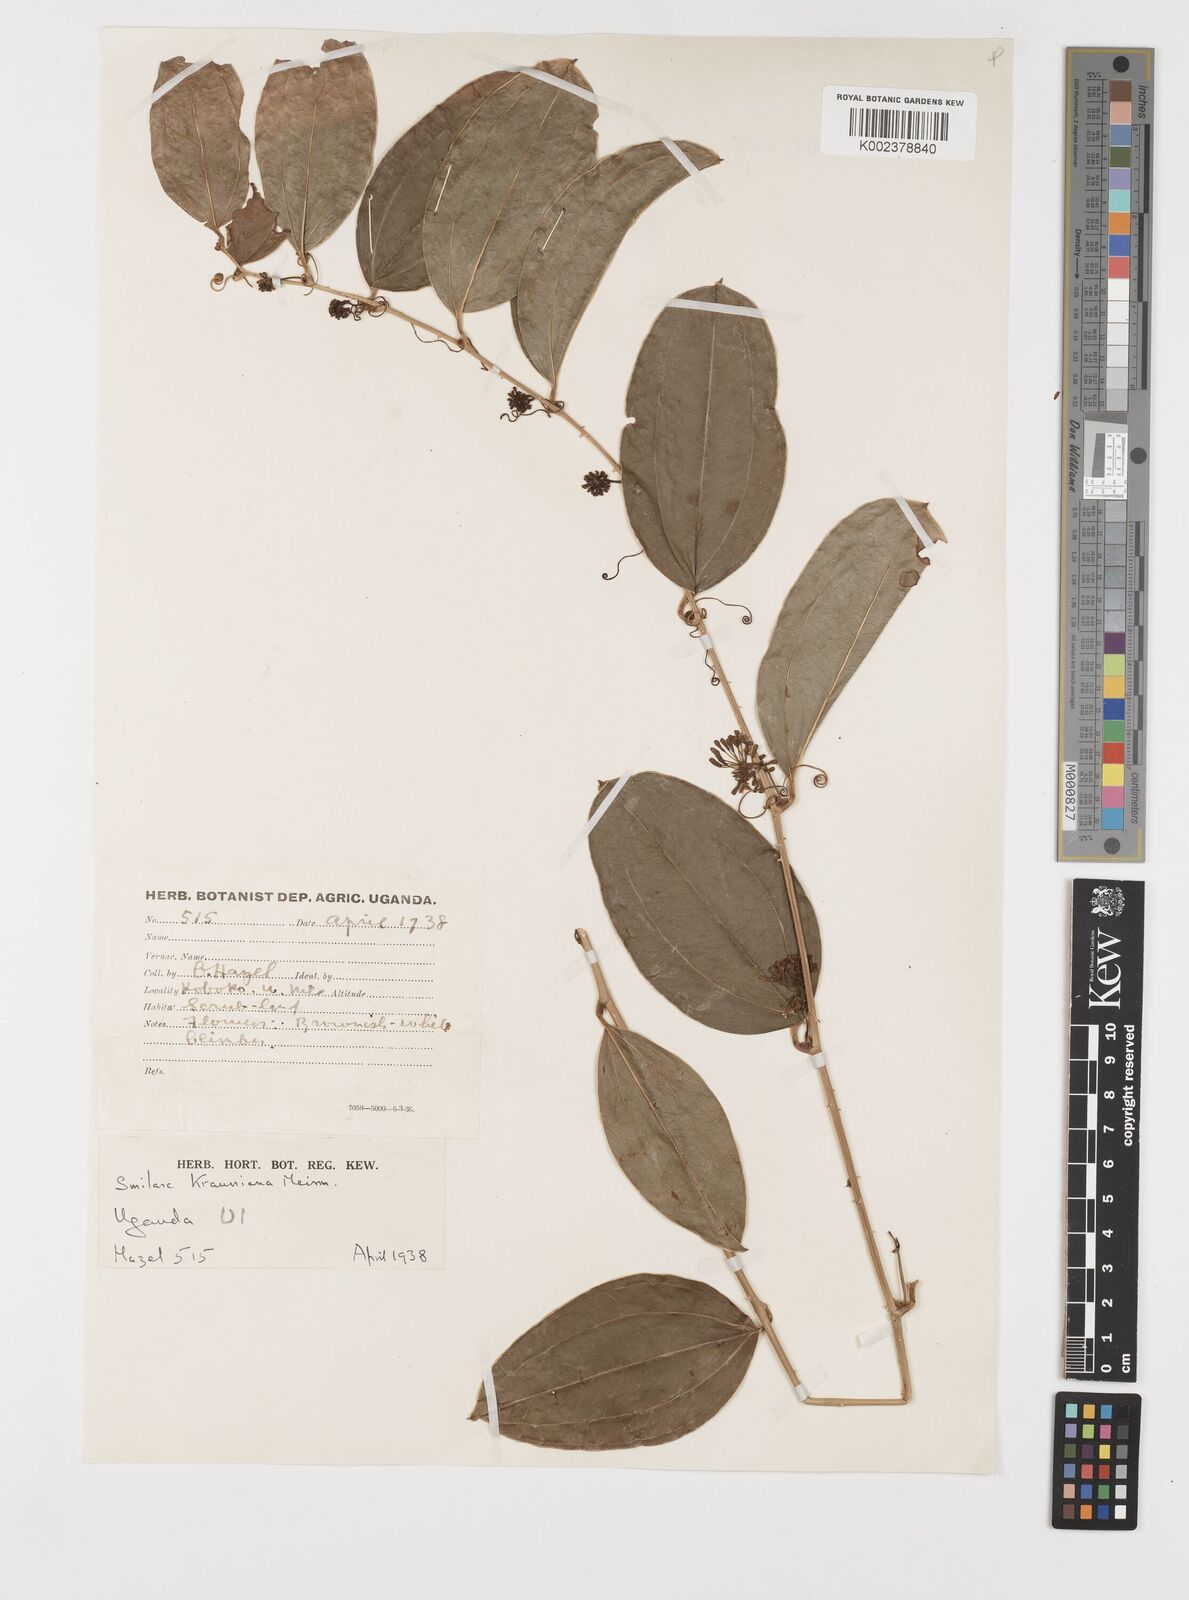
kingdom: Plantae
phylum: Tracheophyta
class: Liliopsida
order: Liliales
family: Smilacaceae
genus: Smilax
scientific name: Smilax anceps
